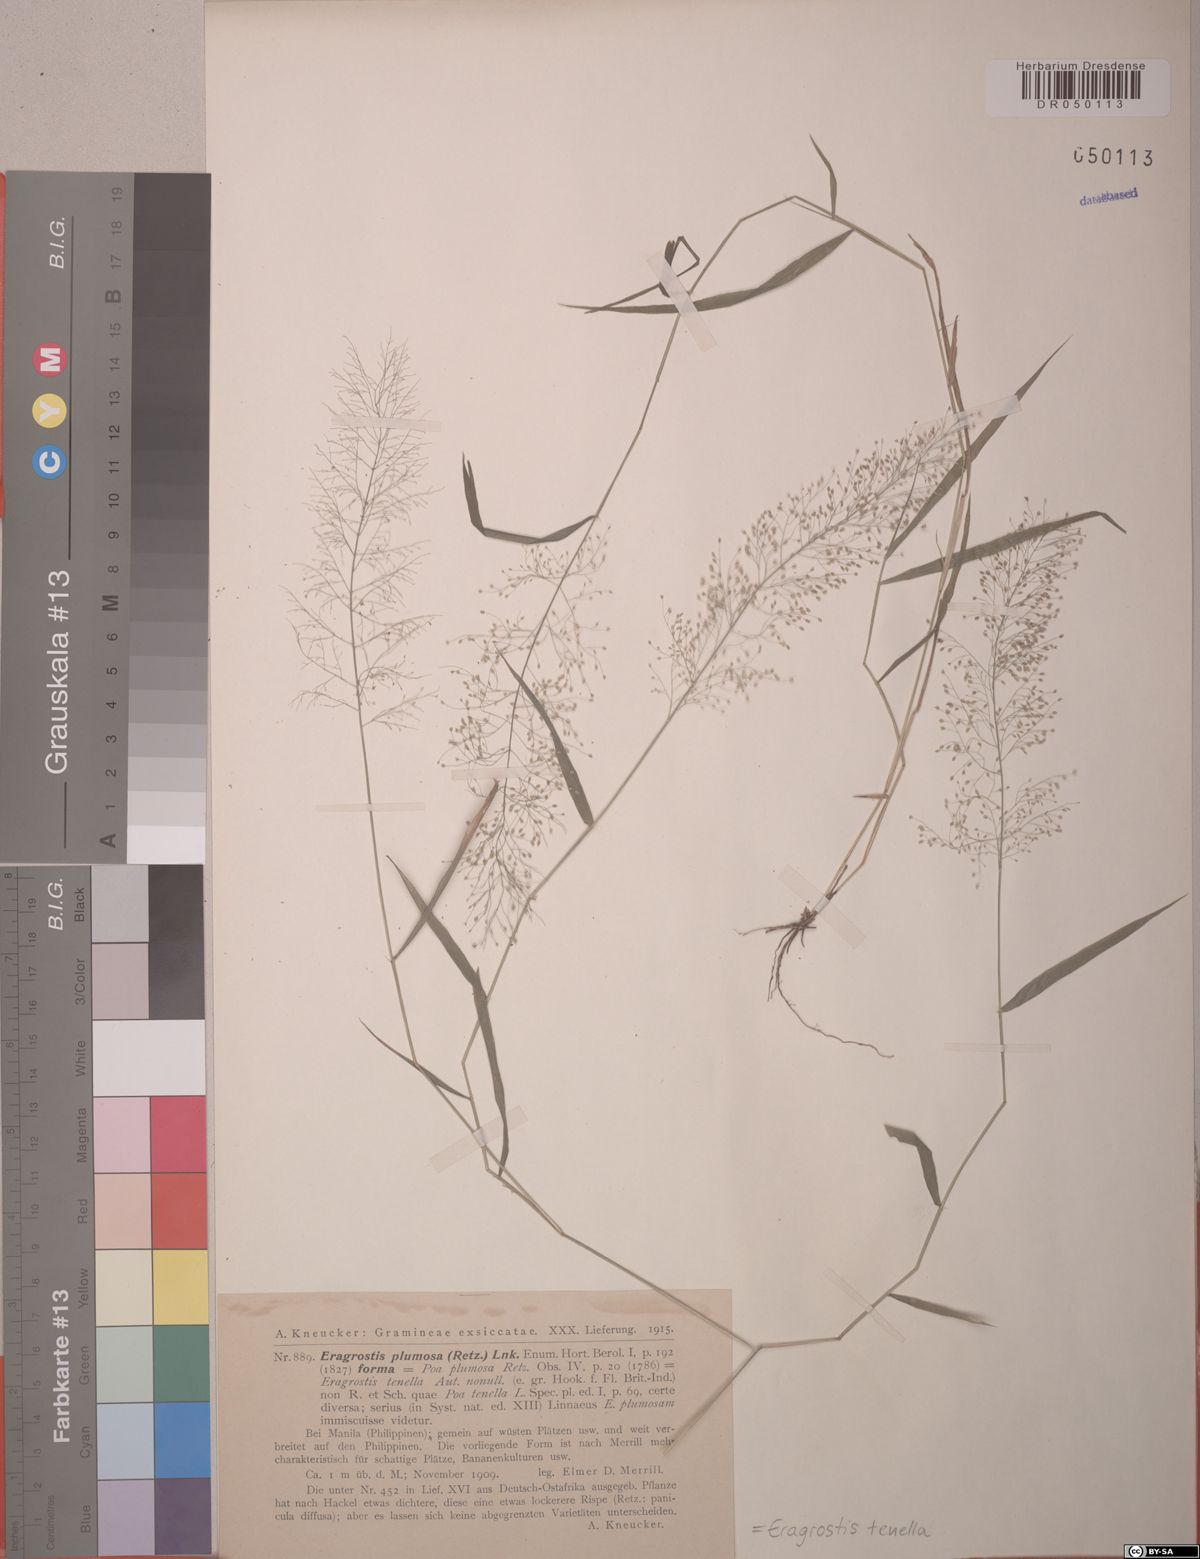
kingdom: Plantae
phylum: Tracheophyta
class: Liliopsida
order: Poales
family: Poaceae
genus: Eragrostis
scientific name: Eragrostis tenella
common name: Japanese lovegrass
